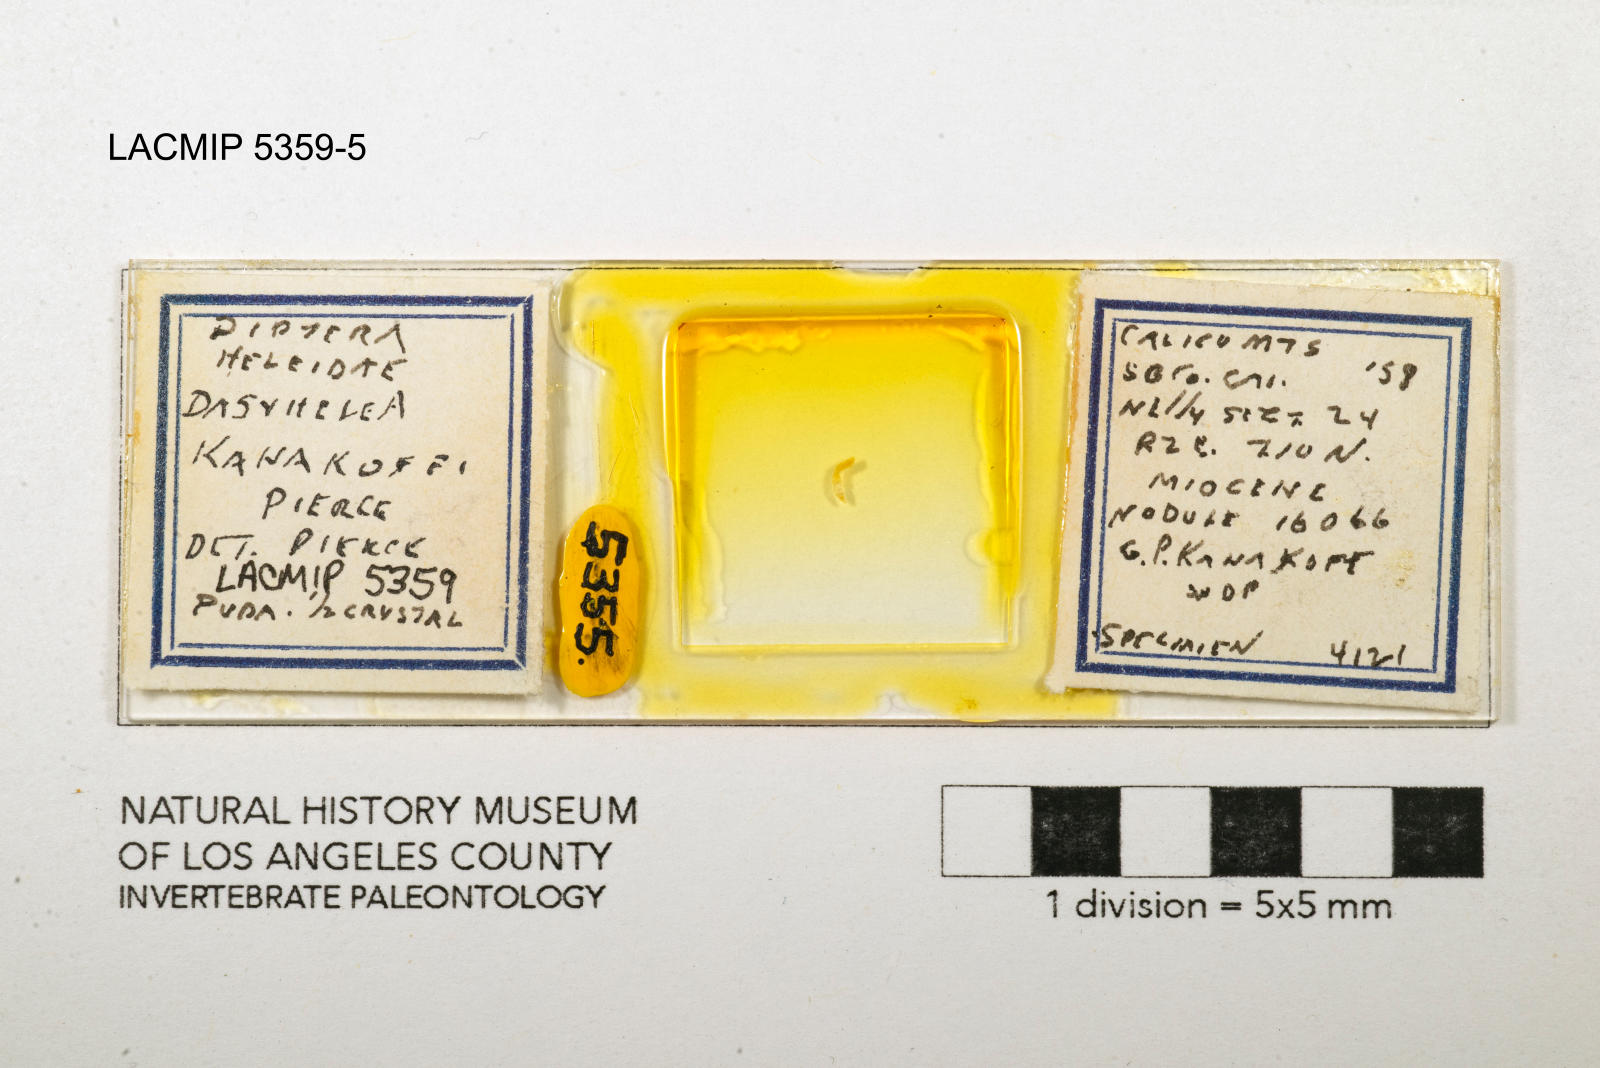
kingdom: Animalia
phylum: Arthropoda
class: Insecta
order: Diptera
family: Ceratopogonidae
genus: Dasyhelea
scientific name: Dasyhelea kanakoffi
